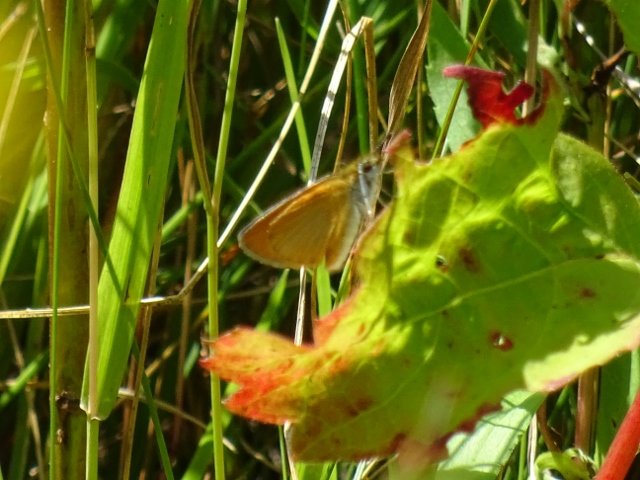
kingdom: Animalia
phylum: Arthropoda
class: Insecta
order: Lepidoptera
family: Hesperiidae
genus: Ancyloxypha
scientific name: Ancyloxypha numitor
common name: Least Skipper
